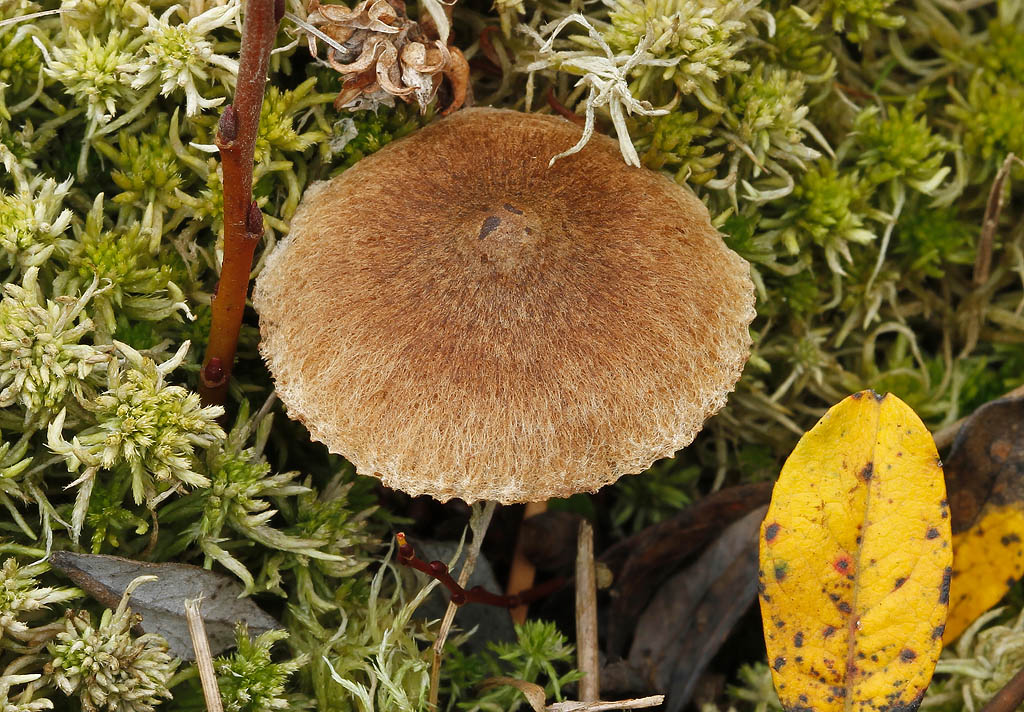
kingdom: Fungi
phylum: Basidiomycota
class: Agaricomycetes
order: Agaricales
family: Inocybaceae
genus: Inocybe
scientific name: Inocybe lacera
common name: laset trævlhat
